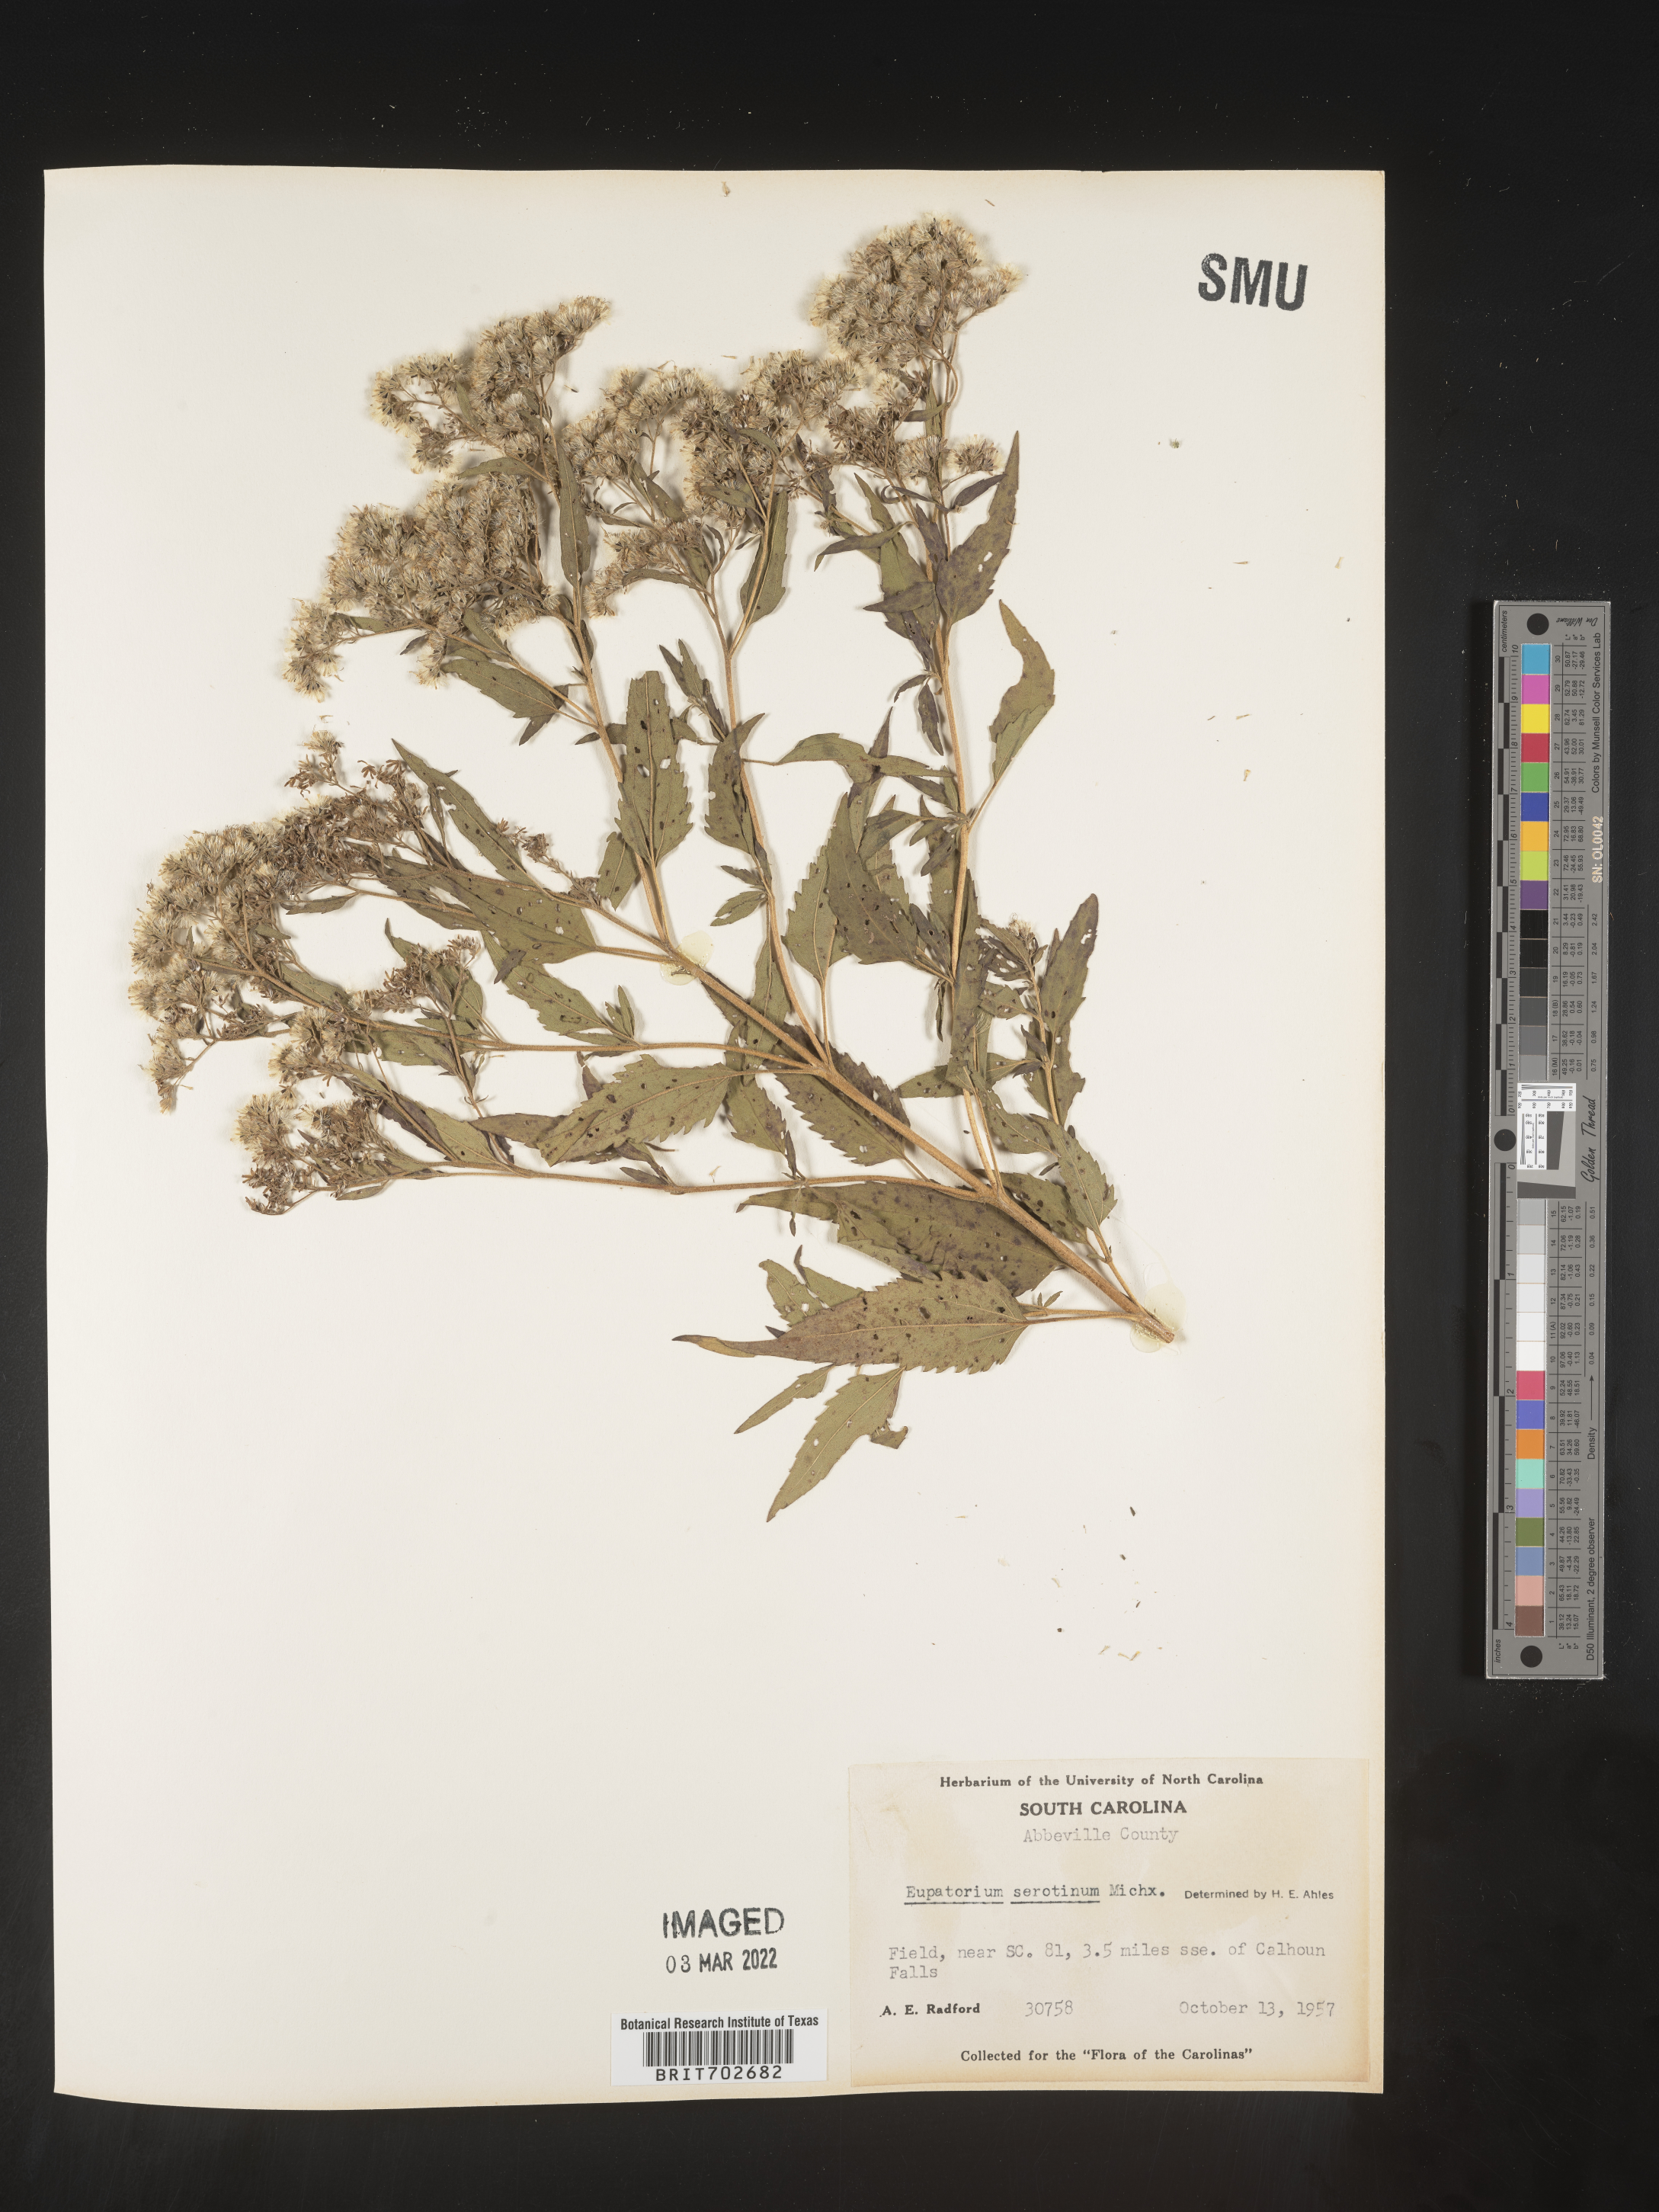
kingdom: Plantae
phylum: Tracheophyta
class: Magnoliopsida
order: Asterales
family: Asteraceae
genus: Eupatorium
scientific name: Eupatorium serotinum
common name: Late boneset
